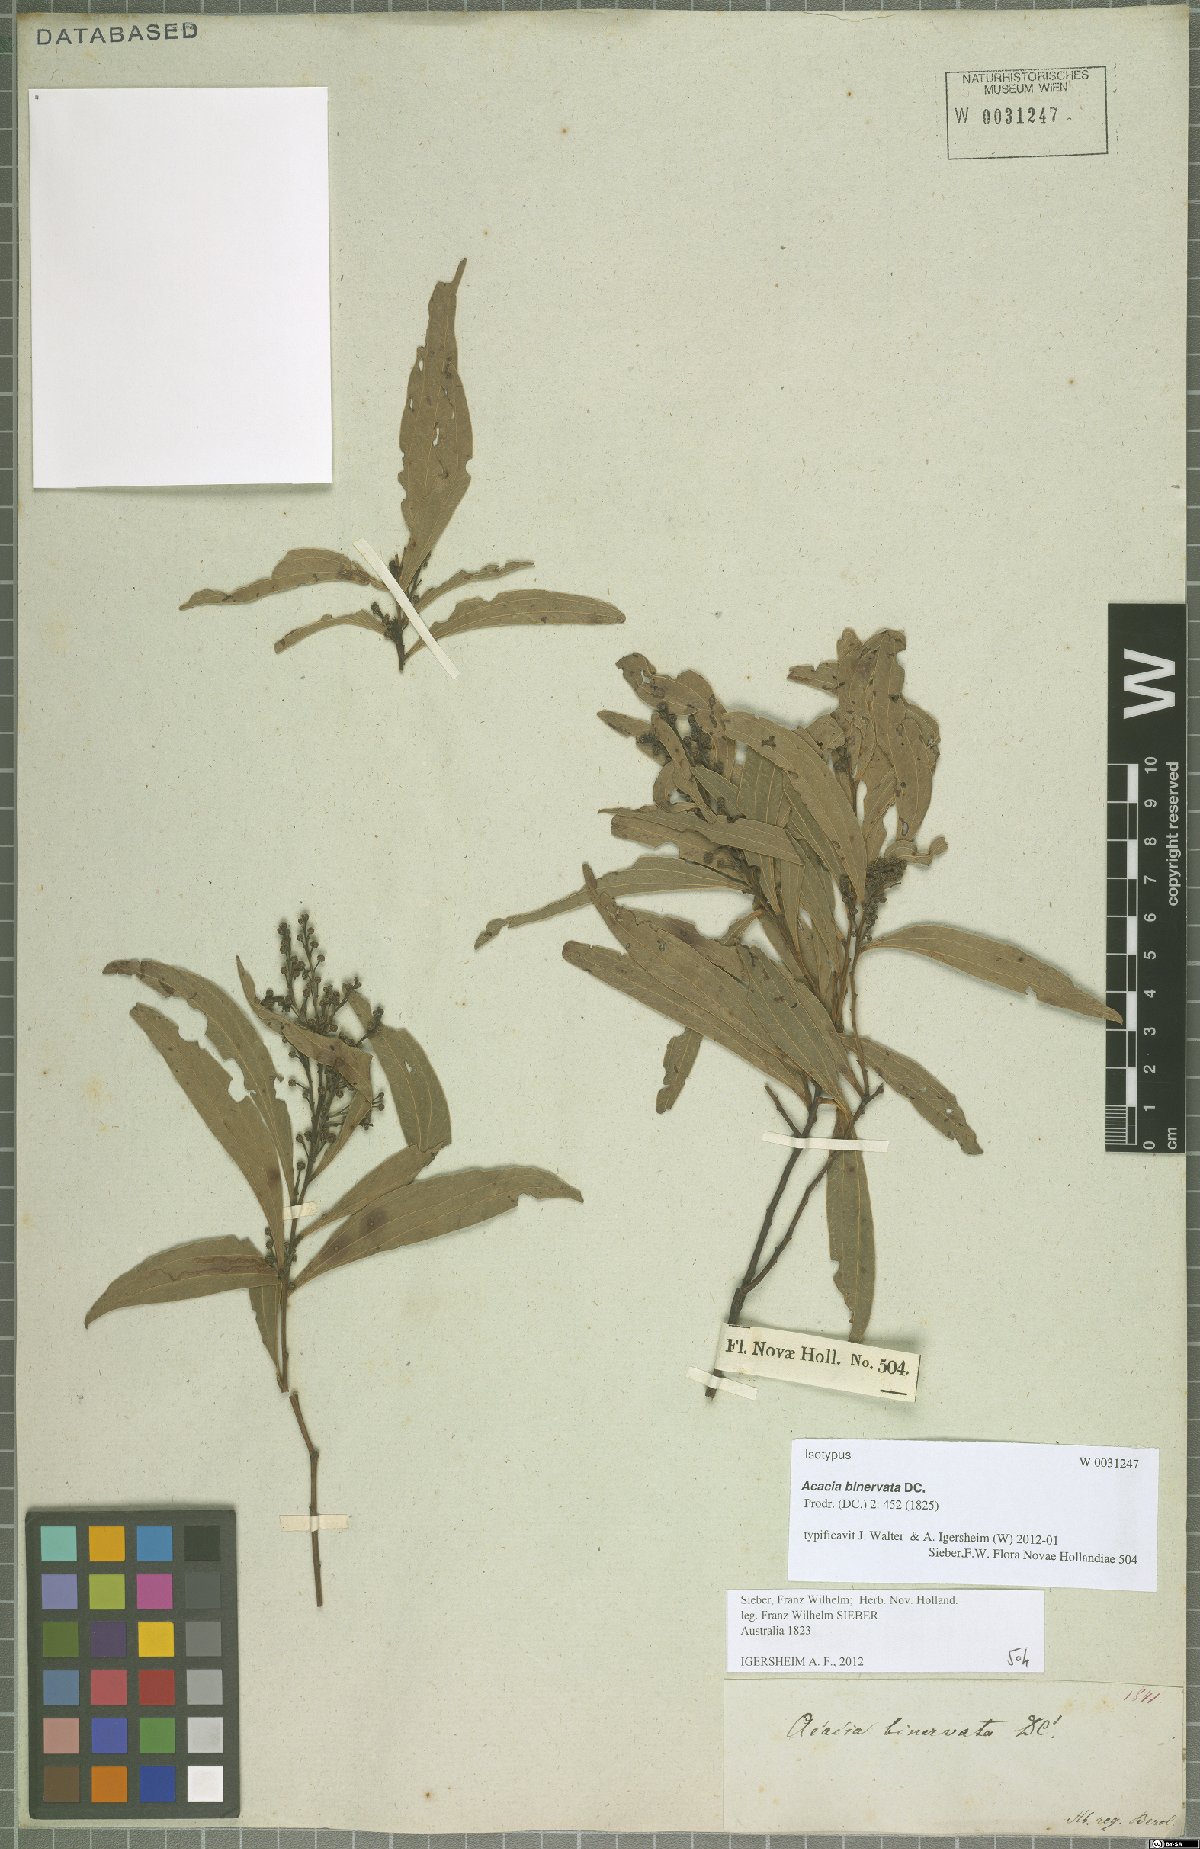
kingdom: Plantae
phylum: Tracheophyta
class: Magnoliopsida
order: Fabales
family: Fabaceae
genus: Acacia
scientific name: Acacia binervata
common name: Two-veined hickory
